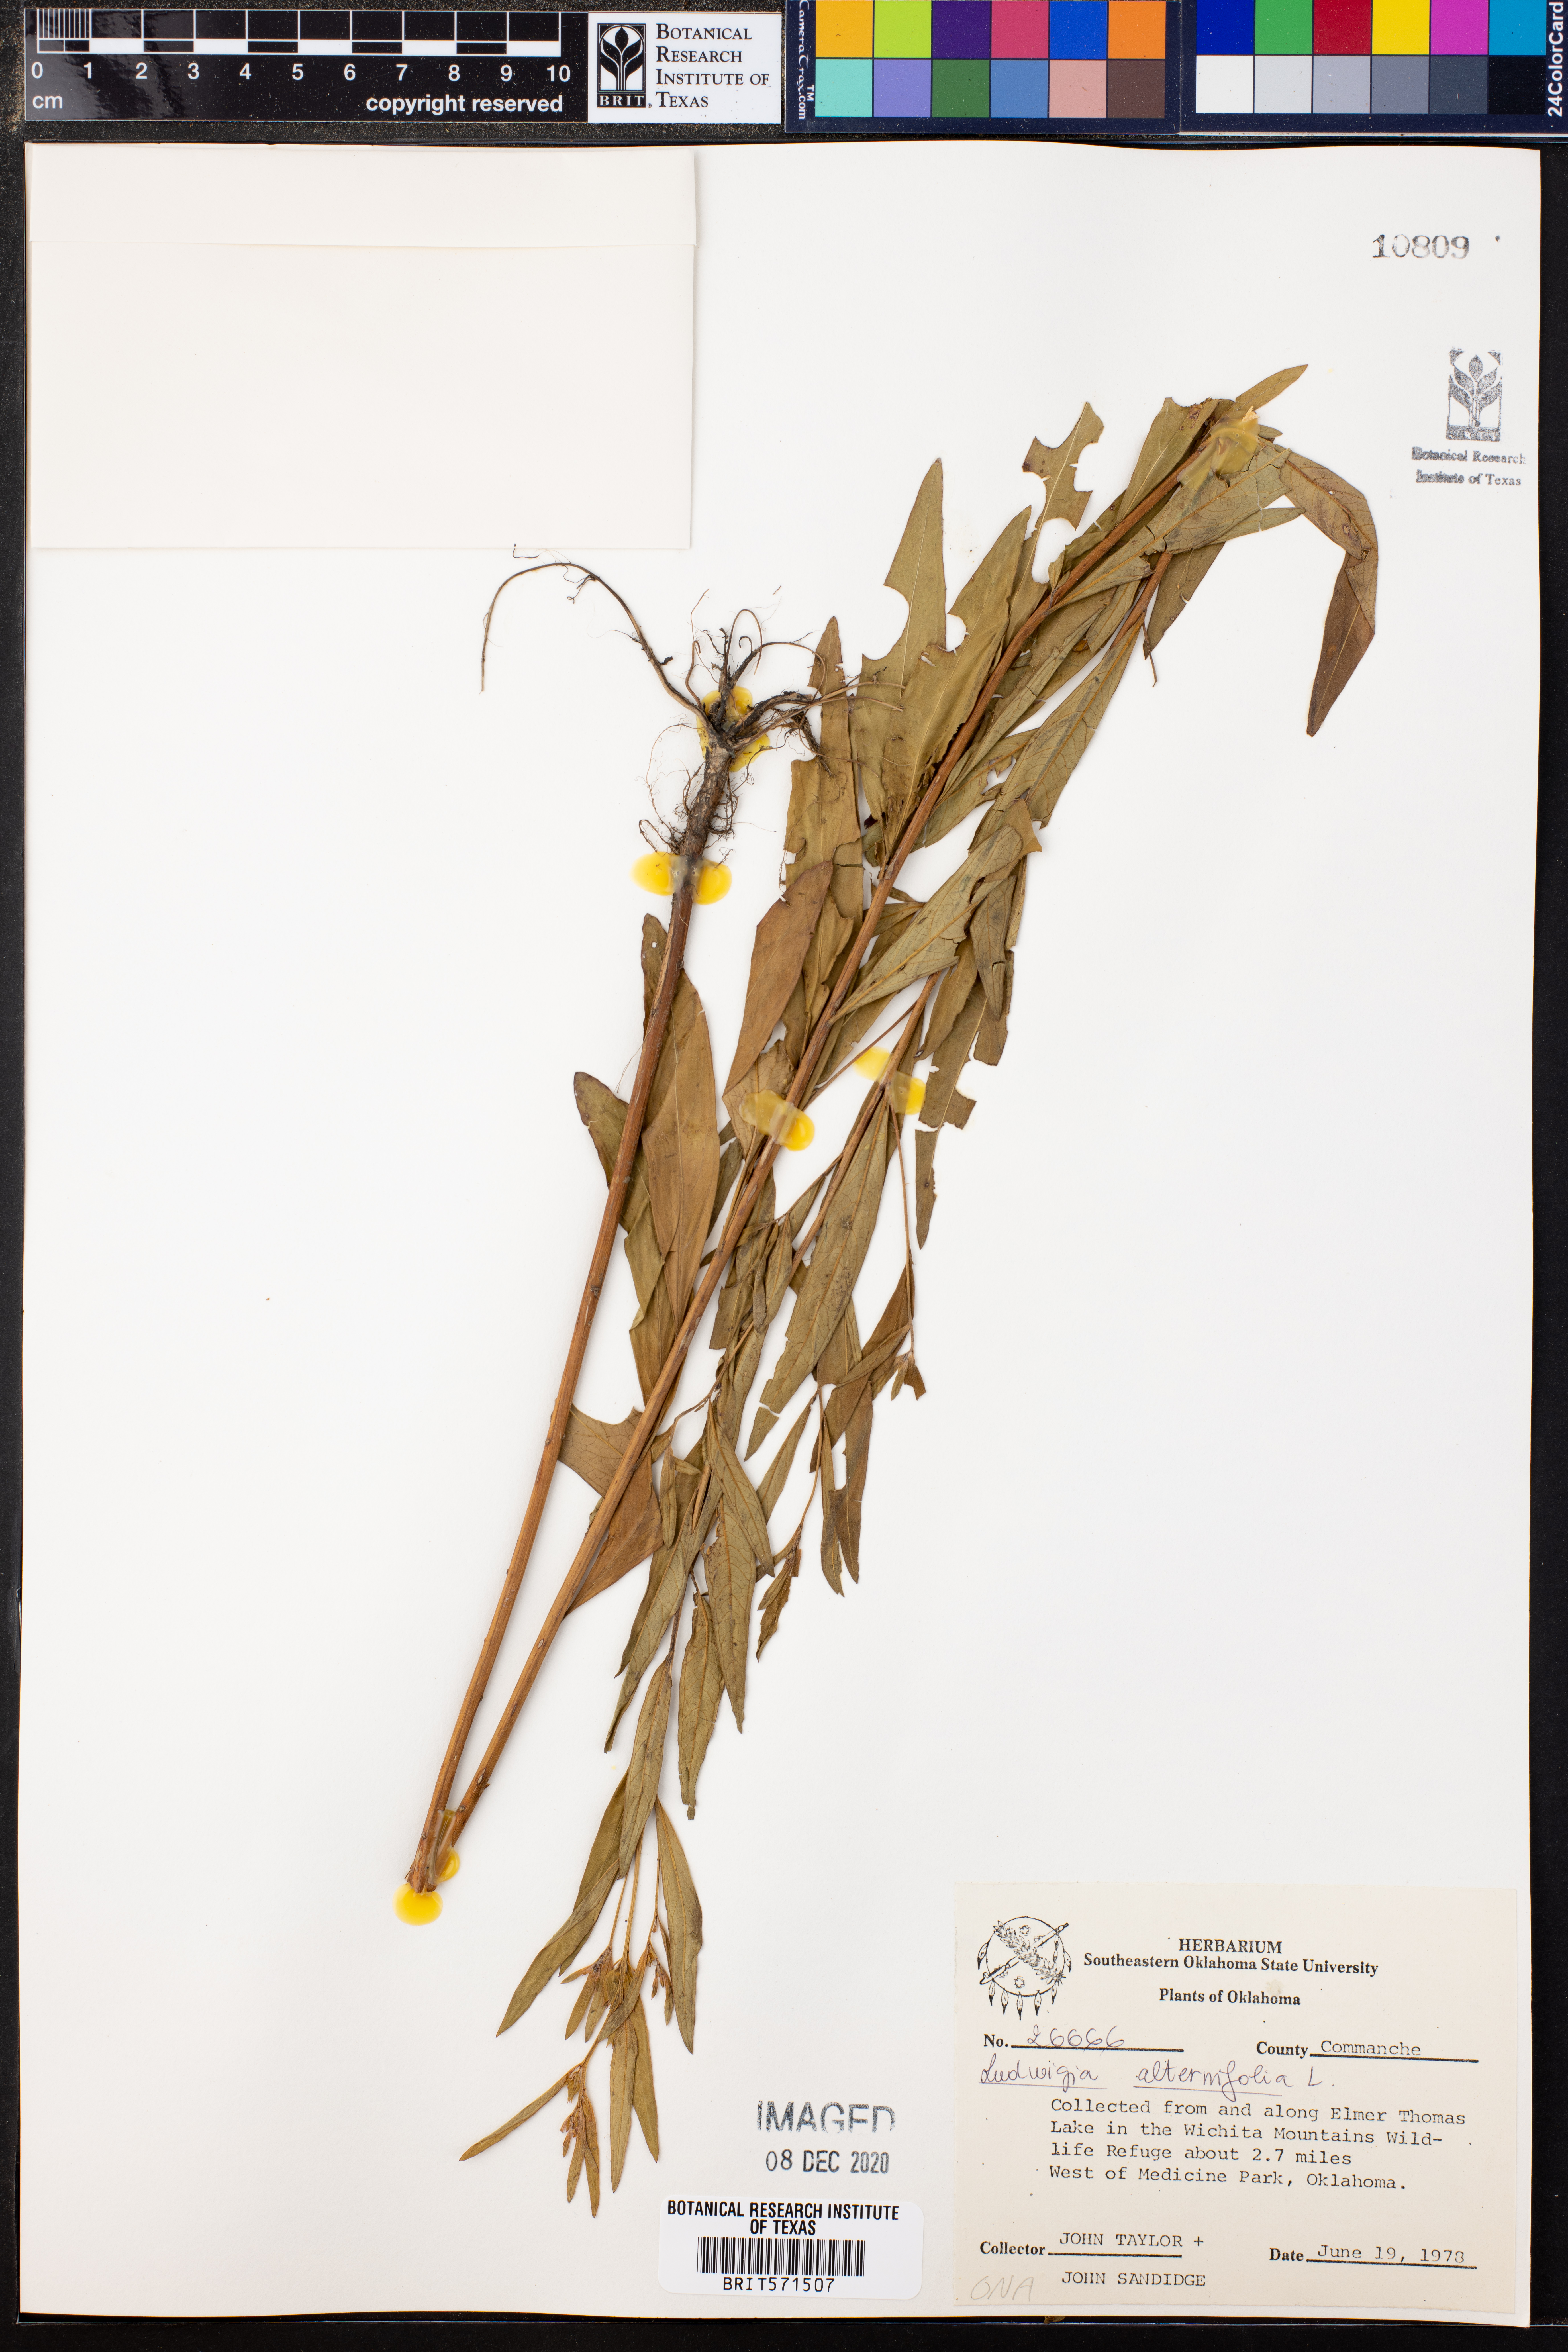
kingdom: Plantae
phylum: Tracheophyta
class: Magnoliopsida
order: Myrtales
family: Onagraceae
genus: Ludwigia
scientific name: Ludwigia alternifolia
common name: Rattlebox
